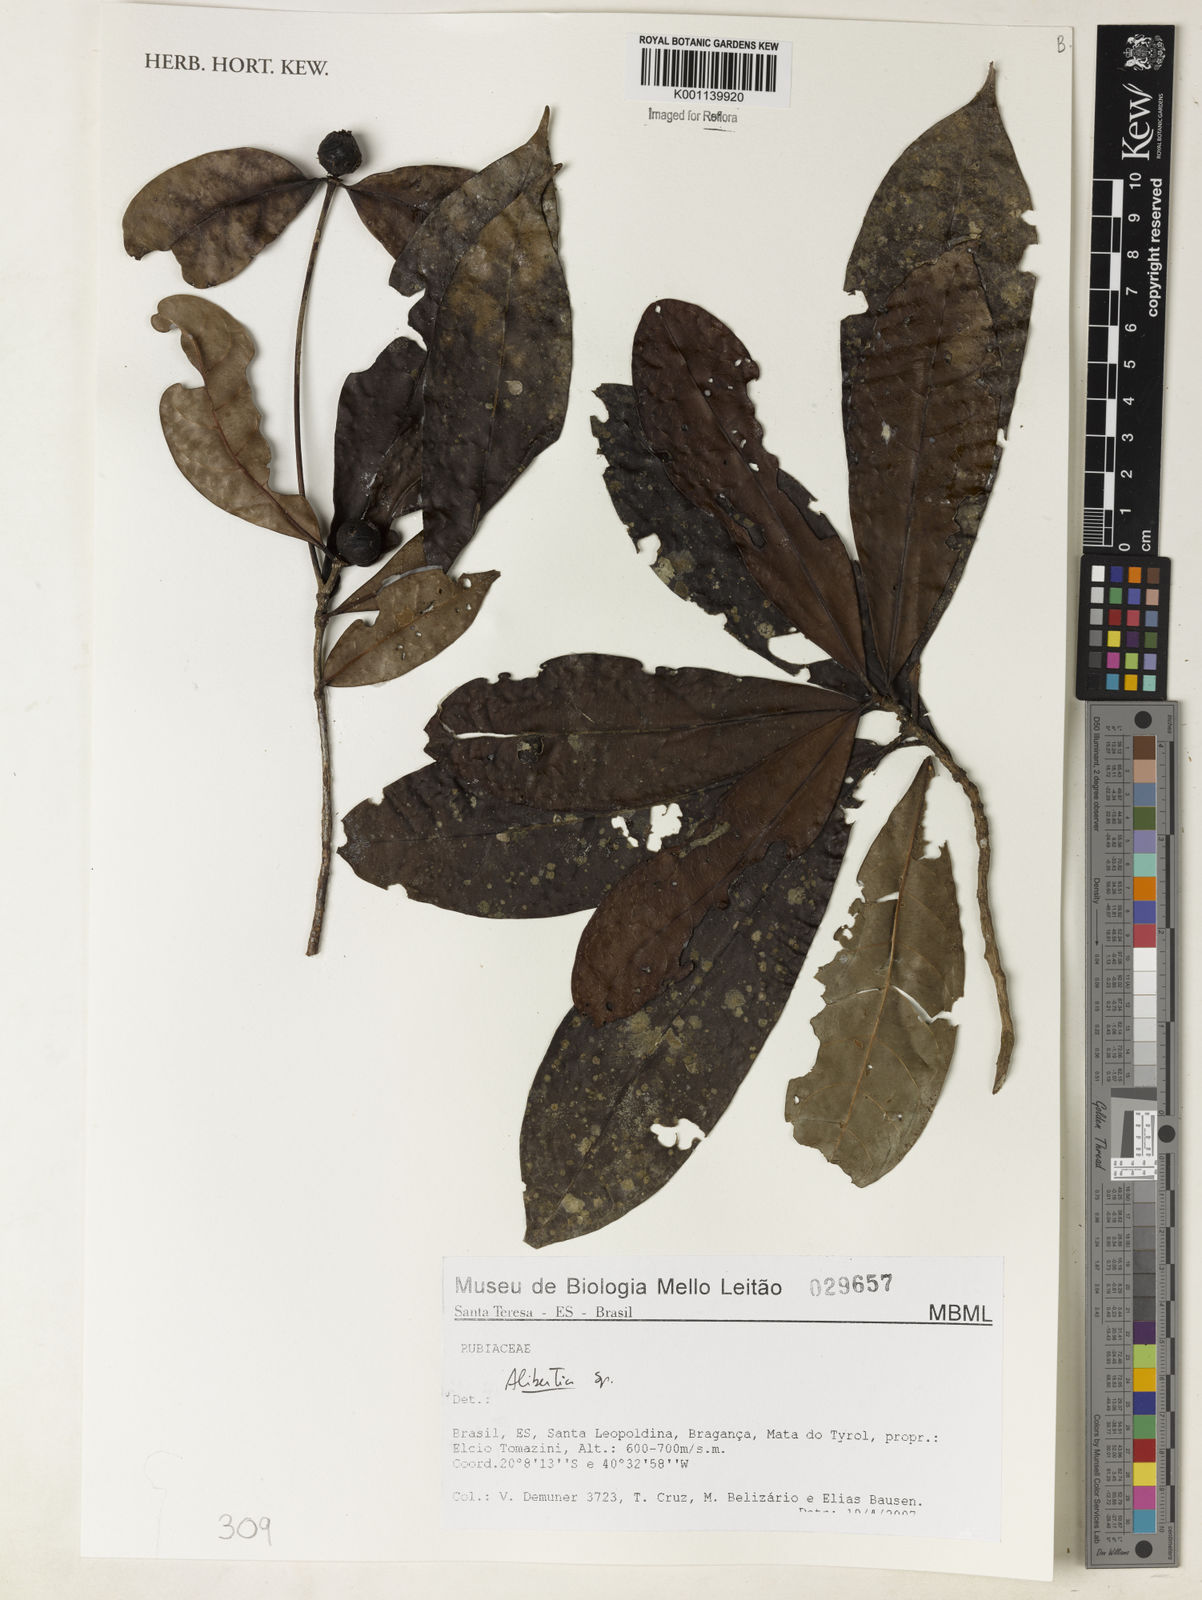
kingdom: Plantae
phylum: Tracheophyta
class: Magnoliopsida
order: Gentianales
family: Rubiaceae
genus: Alibertia
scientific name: Alibertia
